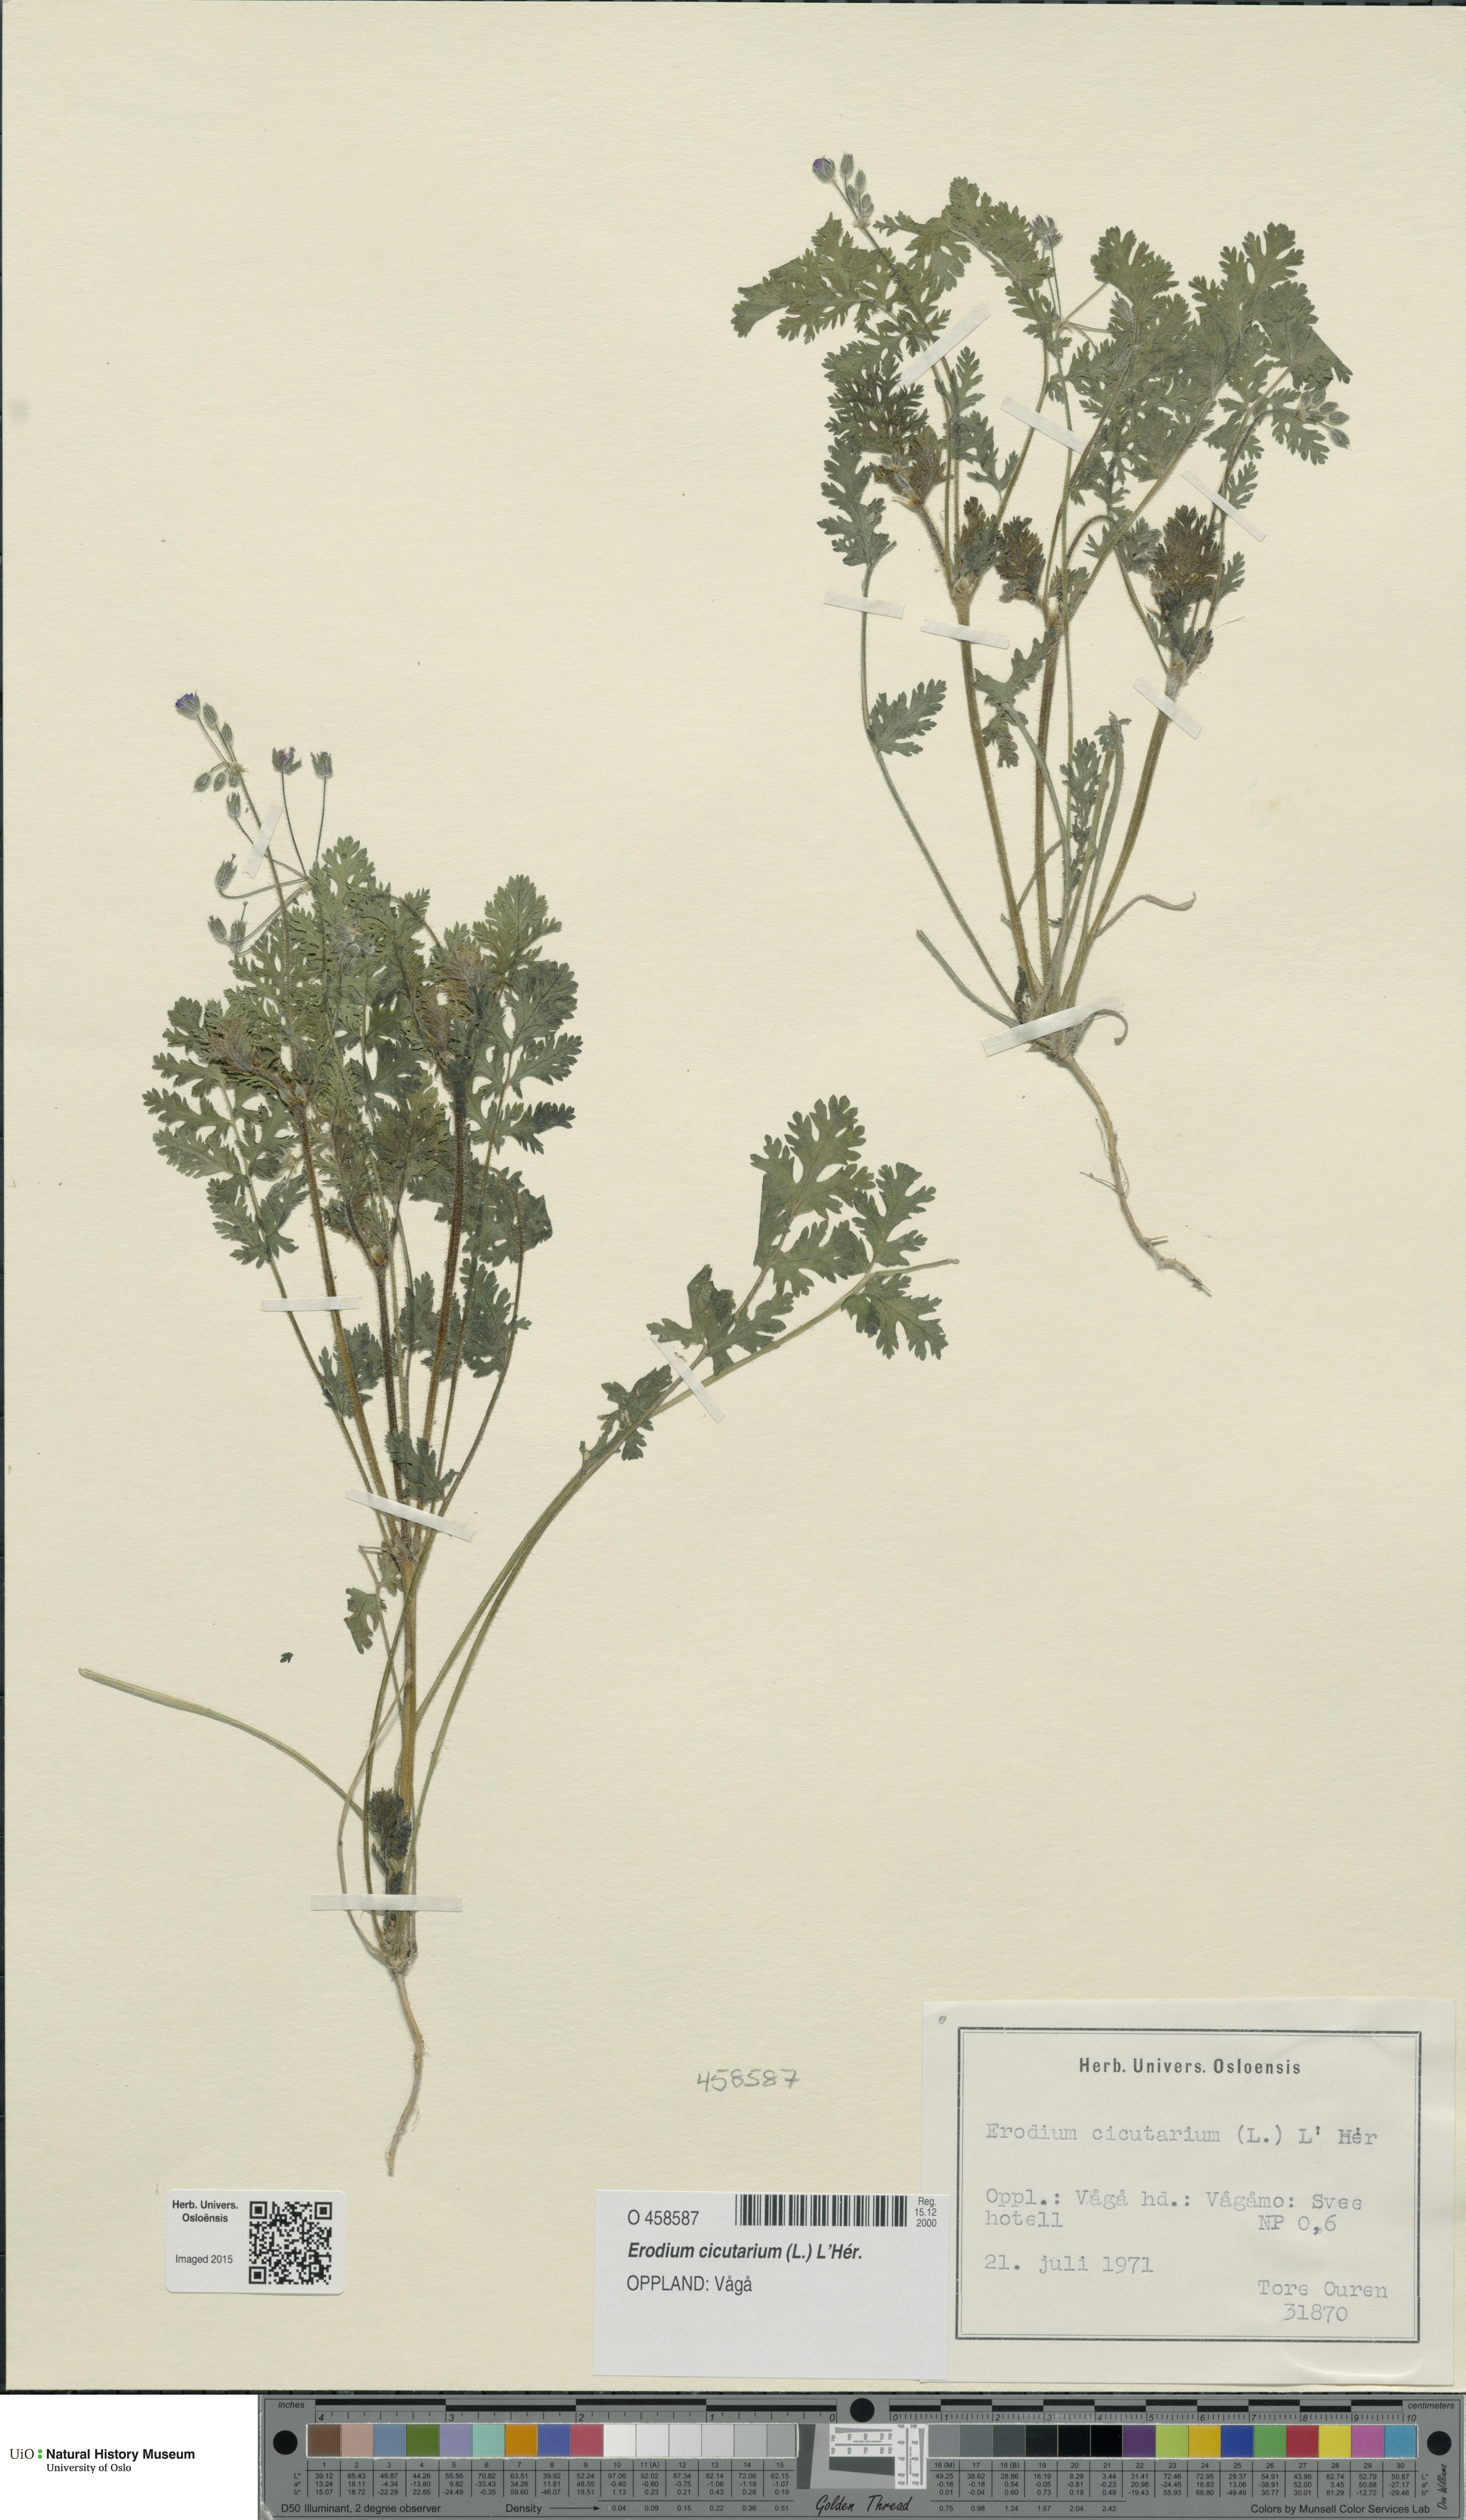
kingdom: Plantae
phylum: Tracheophyta
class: Magnoliopsida
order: Geraniales
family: Geraniaceae
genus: Erodium
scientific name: Erodium cicutarium
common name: Common stork's-bill
